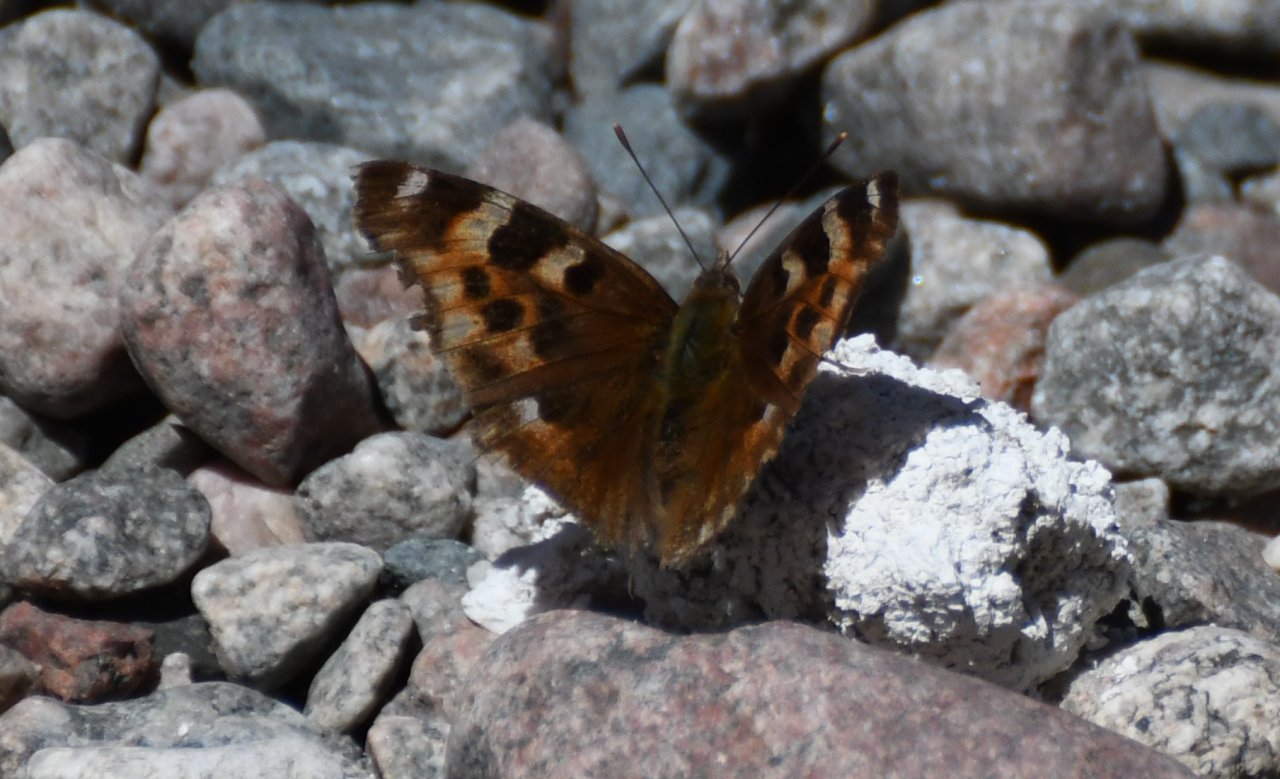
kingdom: Animalia
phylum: Arthropoda
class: Insecta
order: Lepidoptera
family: Nymphalidae
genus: Polygonia
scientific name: Polygonia vaualbum
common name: Compton Tortoiseshell
